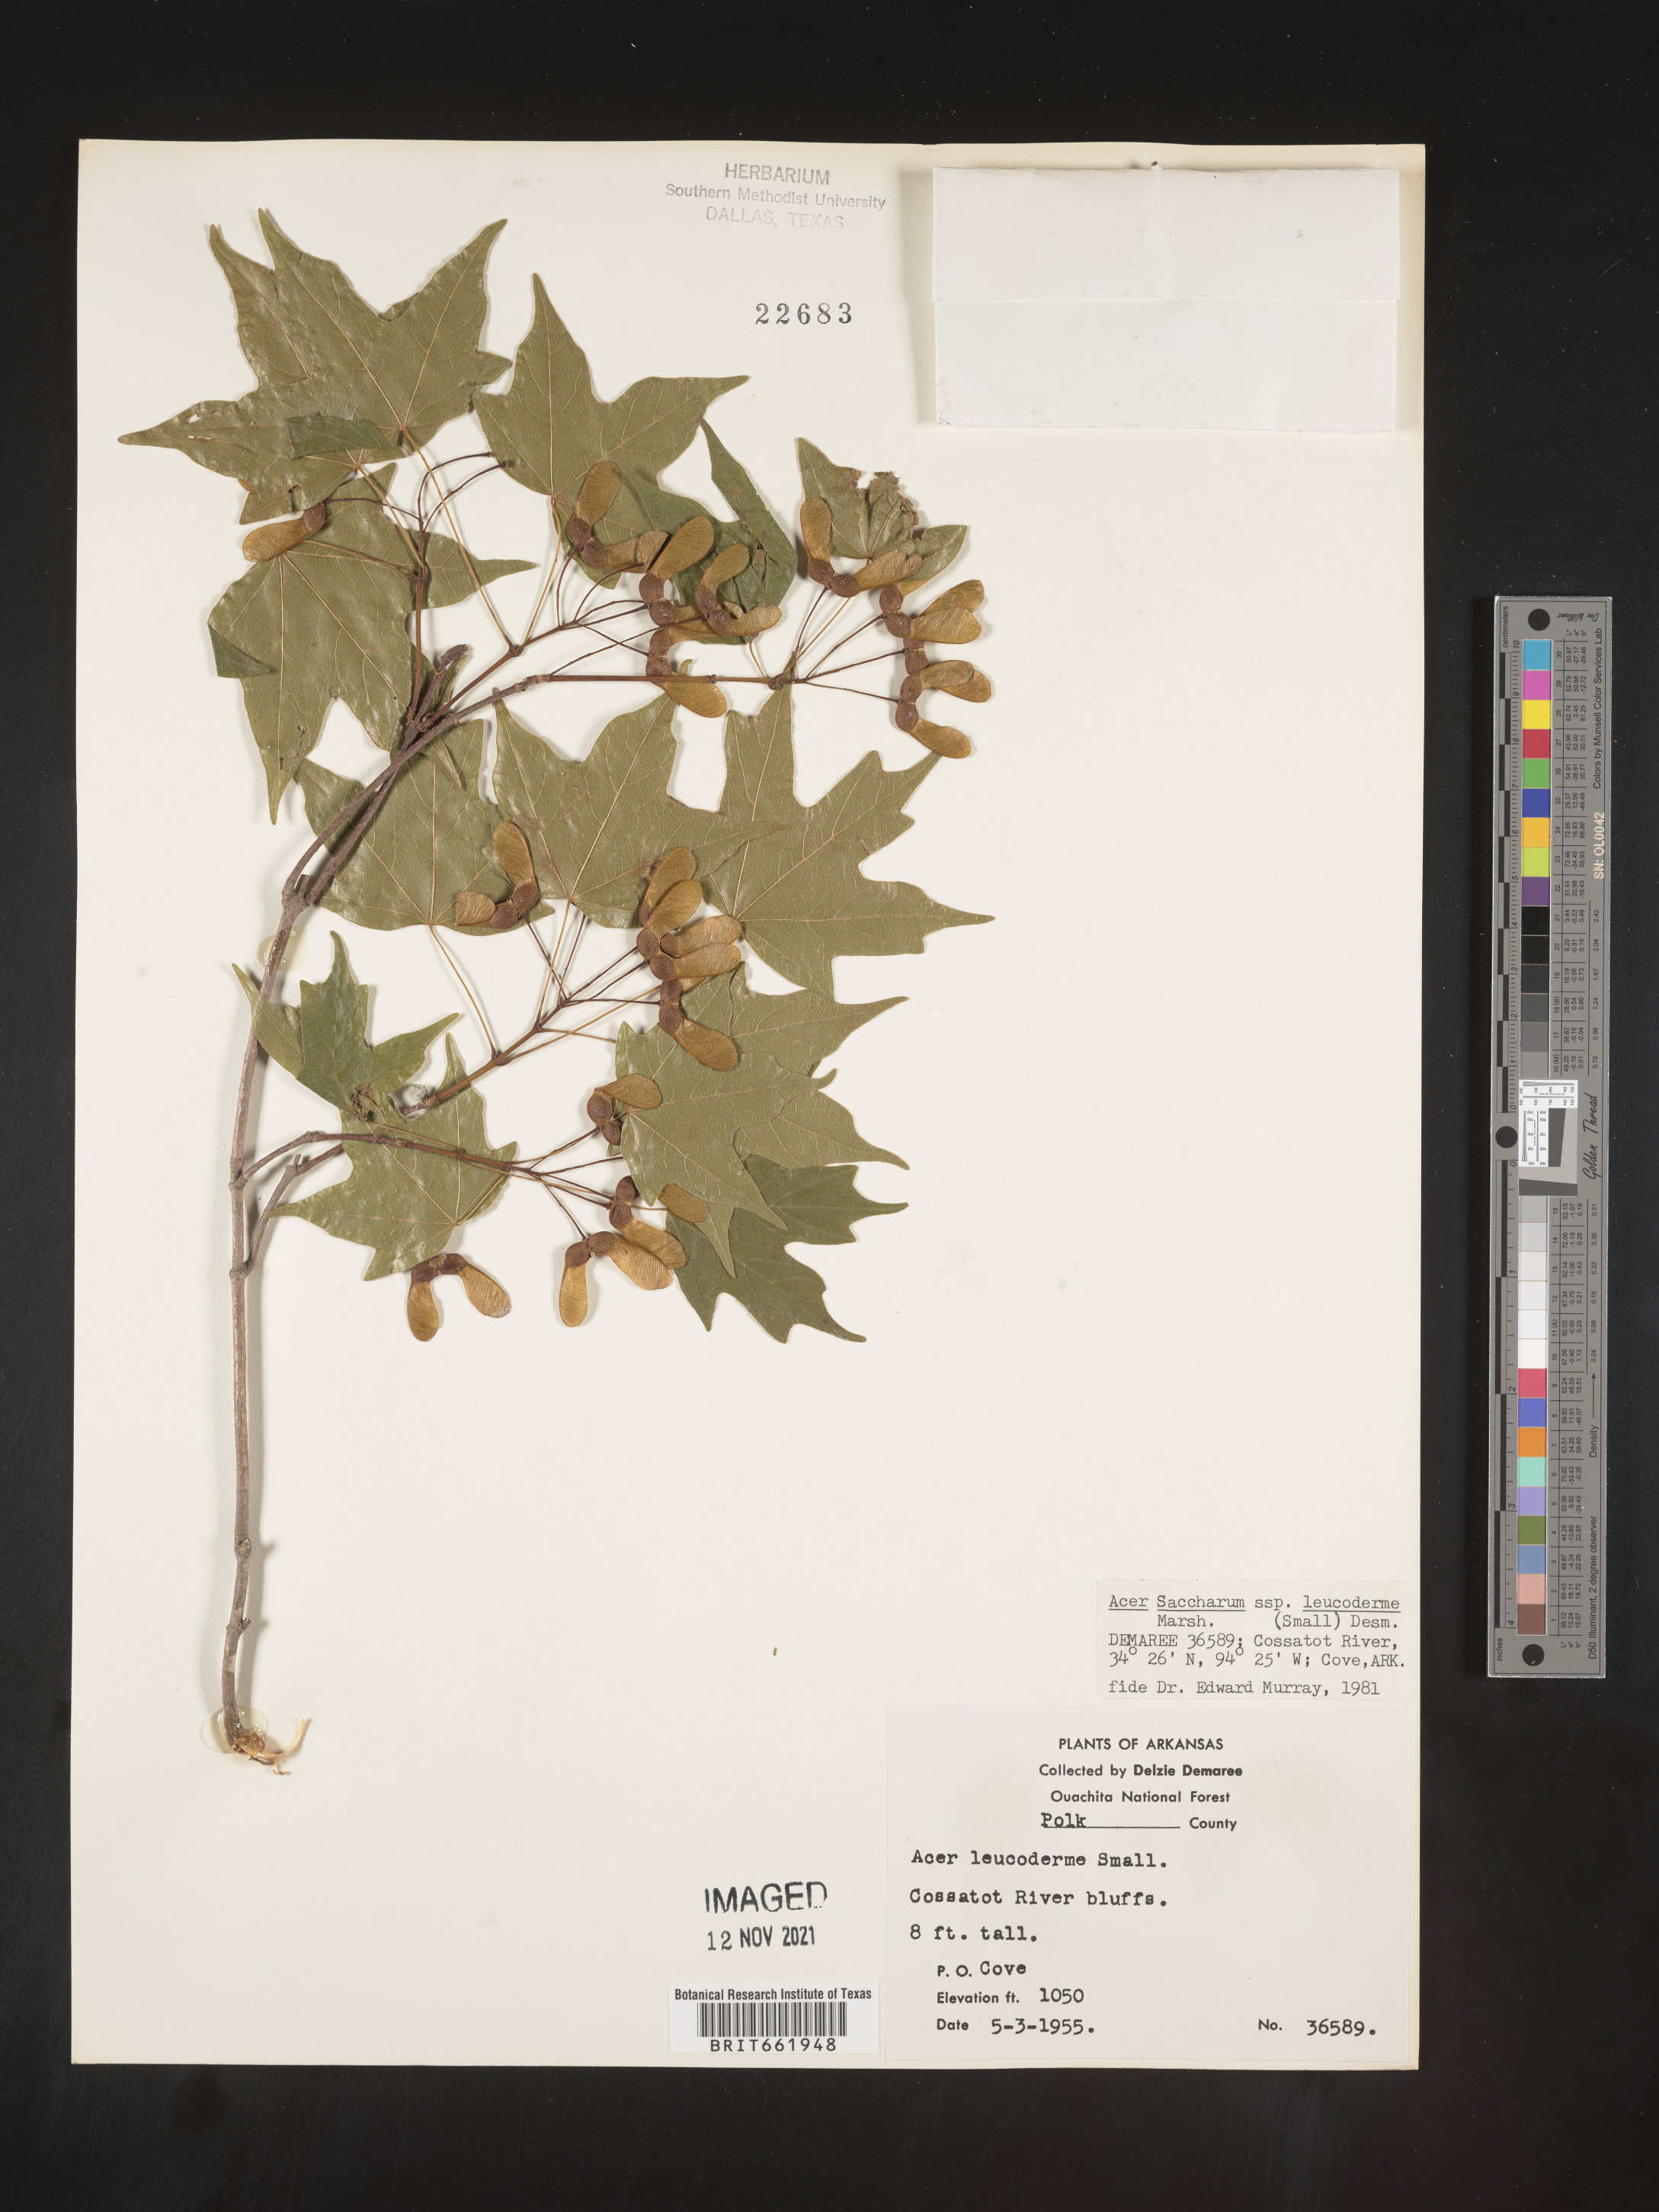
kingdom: Plantae
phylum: Tracheophyta
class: Magnoliopsida
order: Sapindales
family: Sapindaceae
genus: Acer
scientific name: Acer leucoderme
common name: Chalk maple
